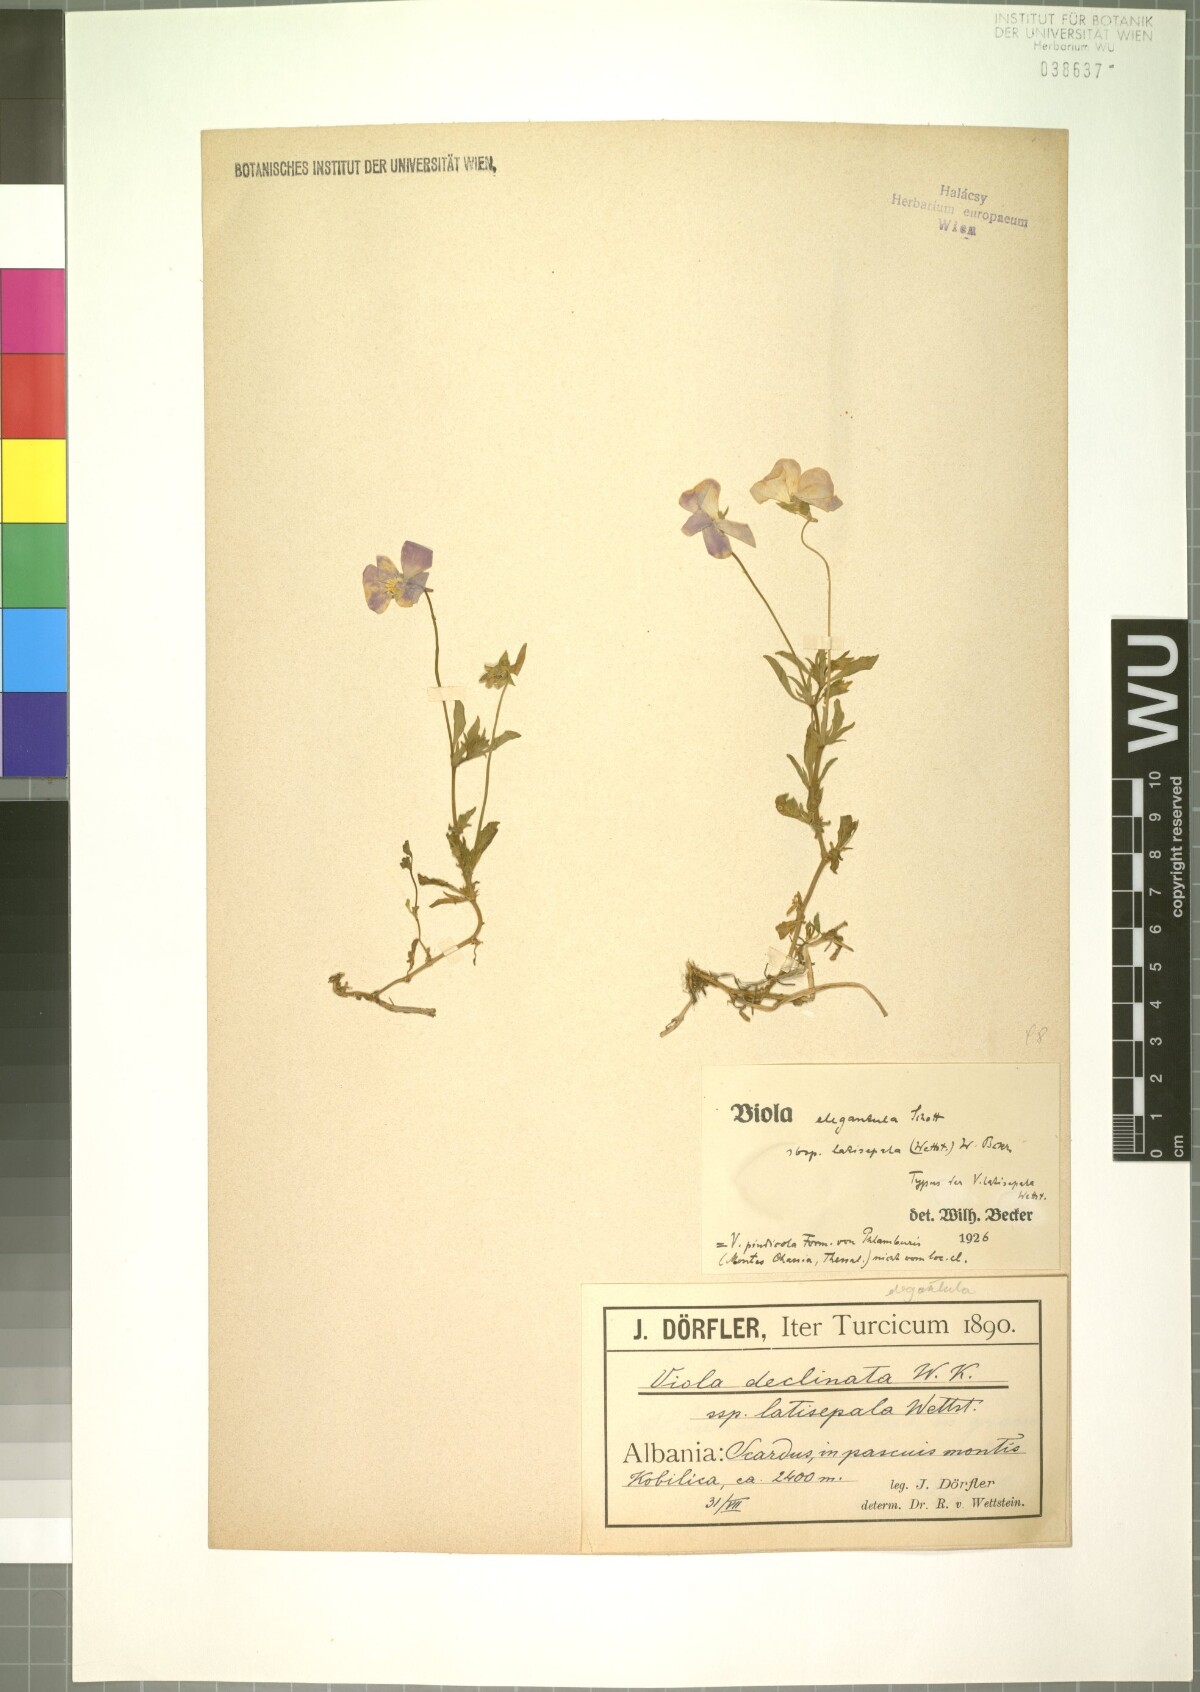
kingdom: Plantae
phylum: Tracheophyta
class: Magnoliopsida
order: Malpighiales
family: Violaceae
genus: Viola
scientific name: Viola tricolor
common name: Pansy
